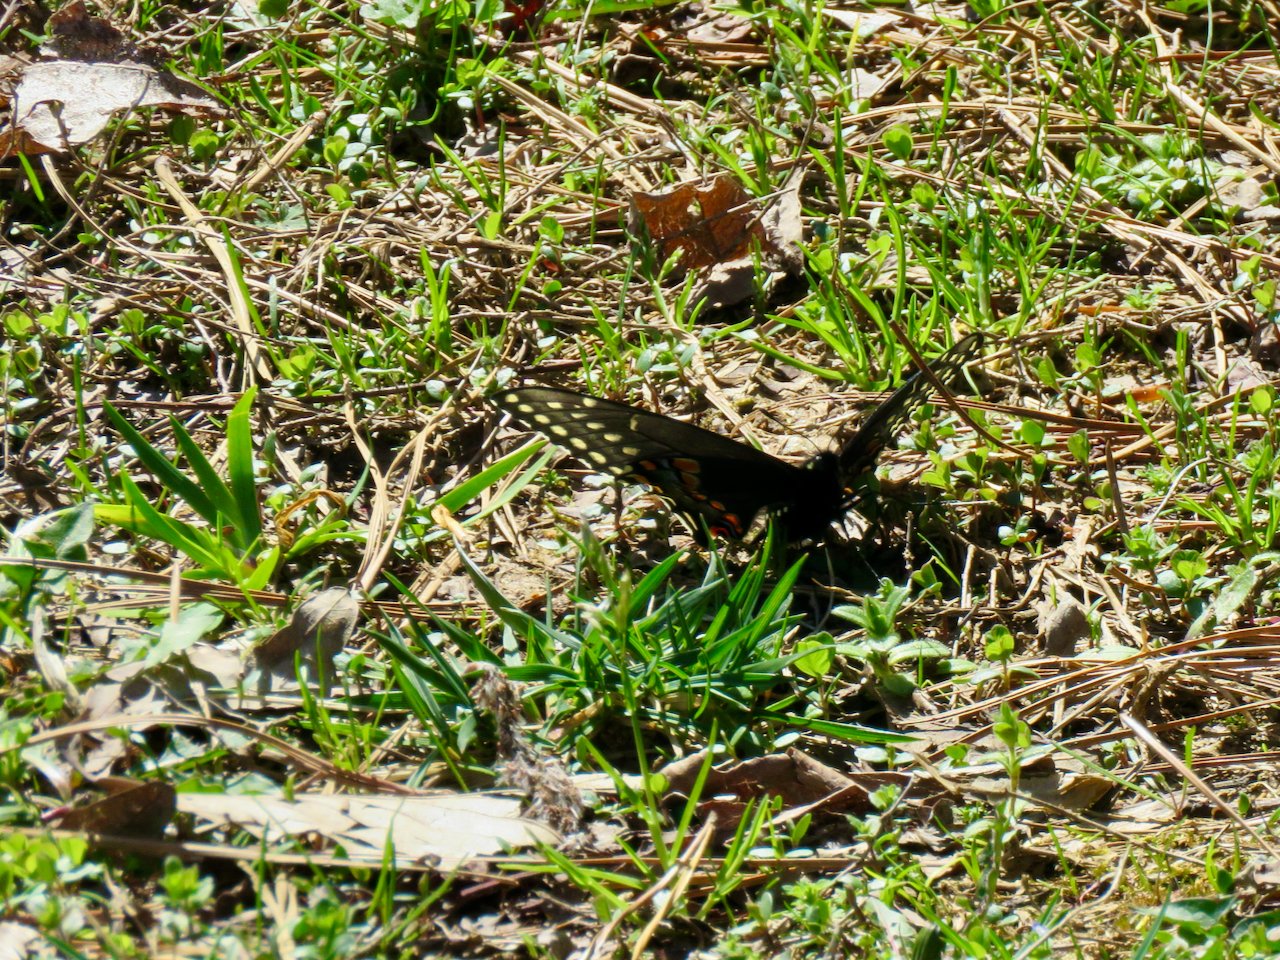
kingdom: Animalia
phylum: Arthropoda
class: Insecta
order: Lepidoptera
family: Papilionidae
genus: Papilio
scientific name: Papilio polyxenes
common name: Black Swallowtail
